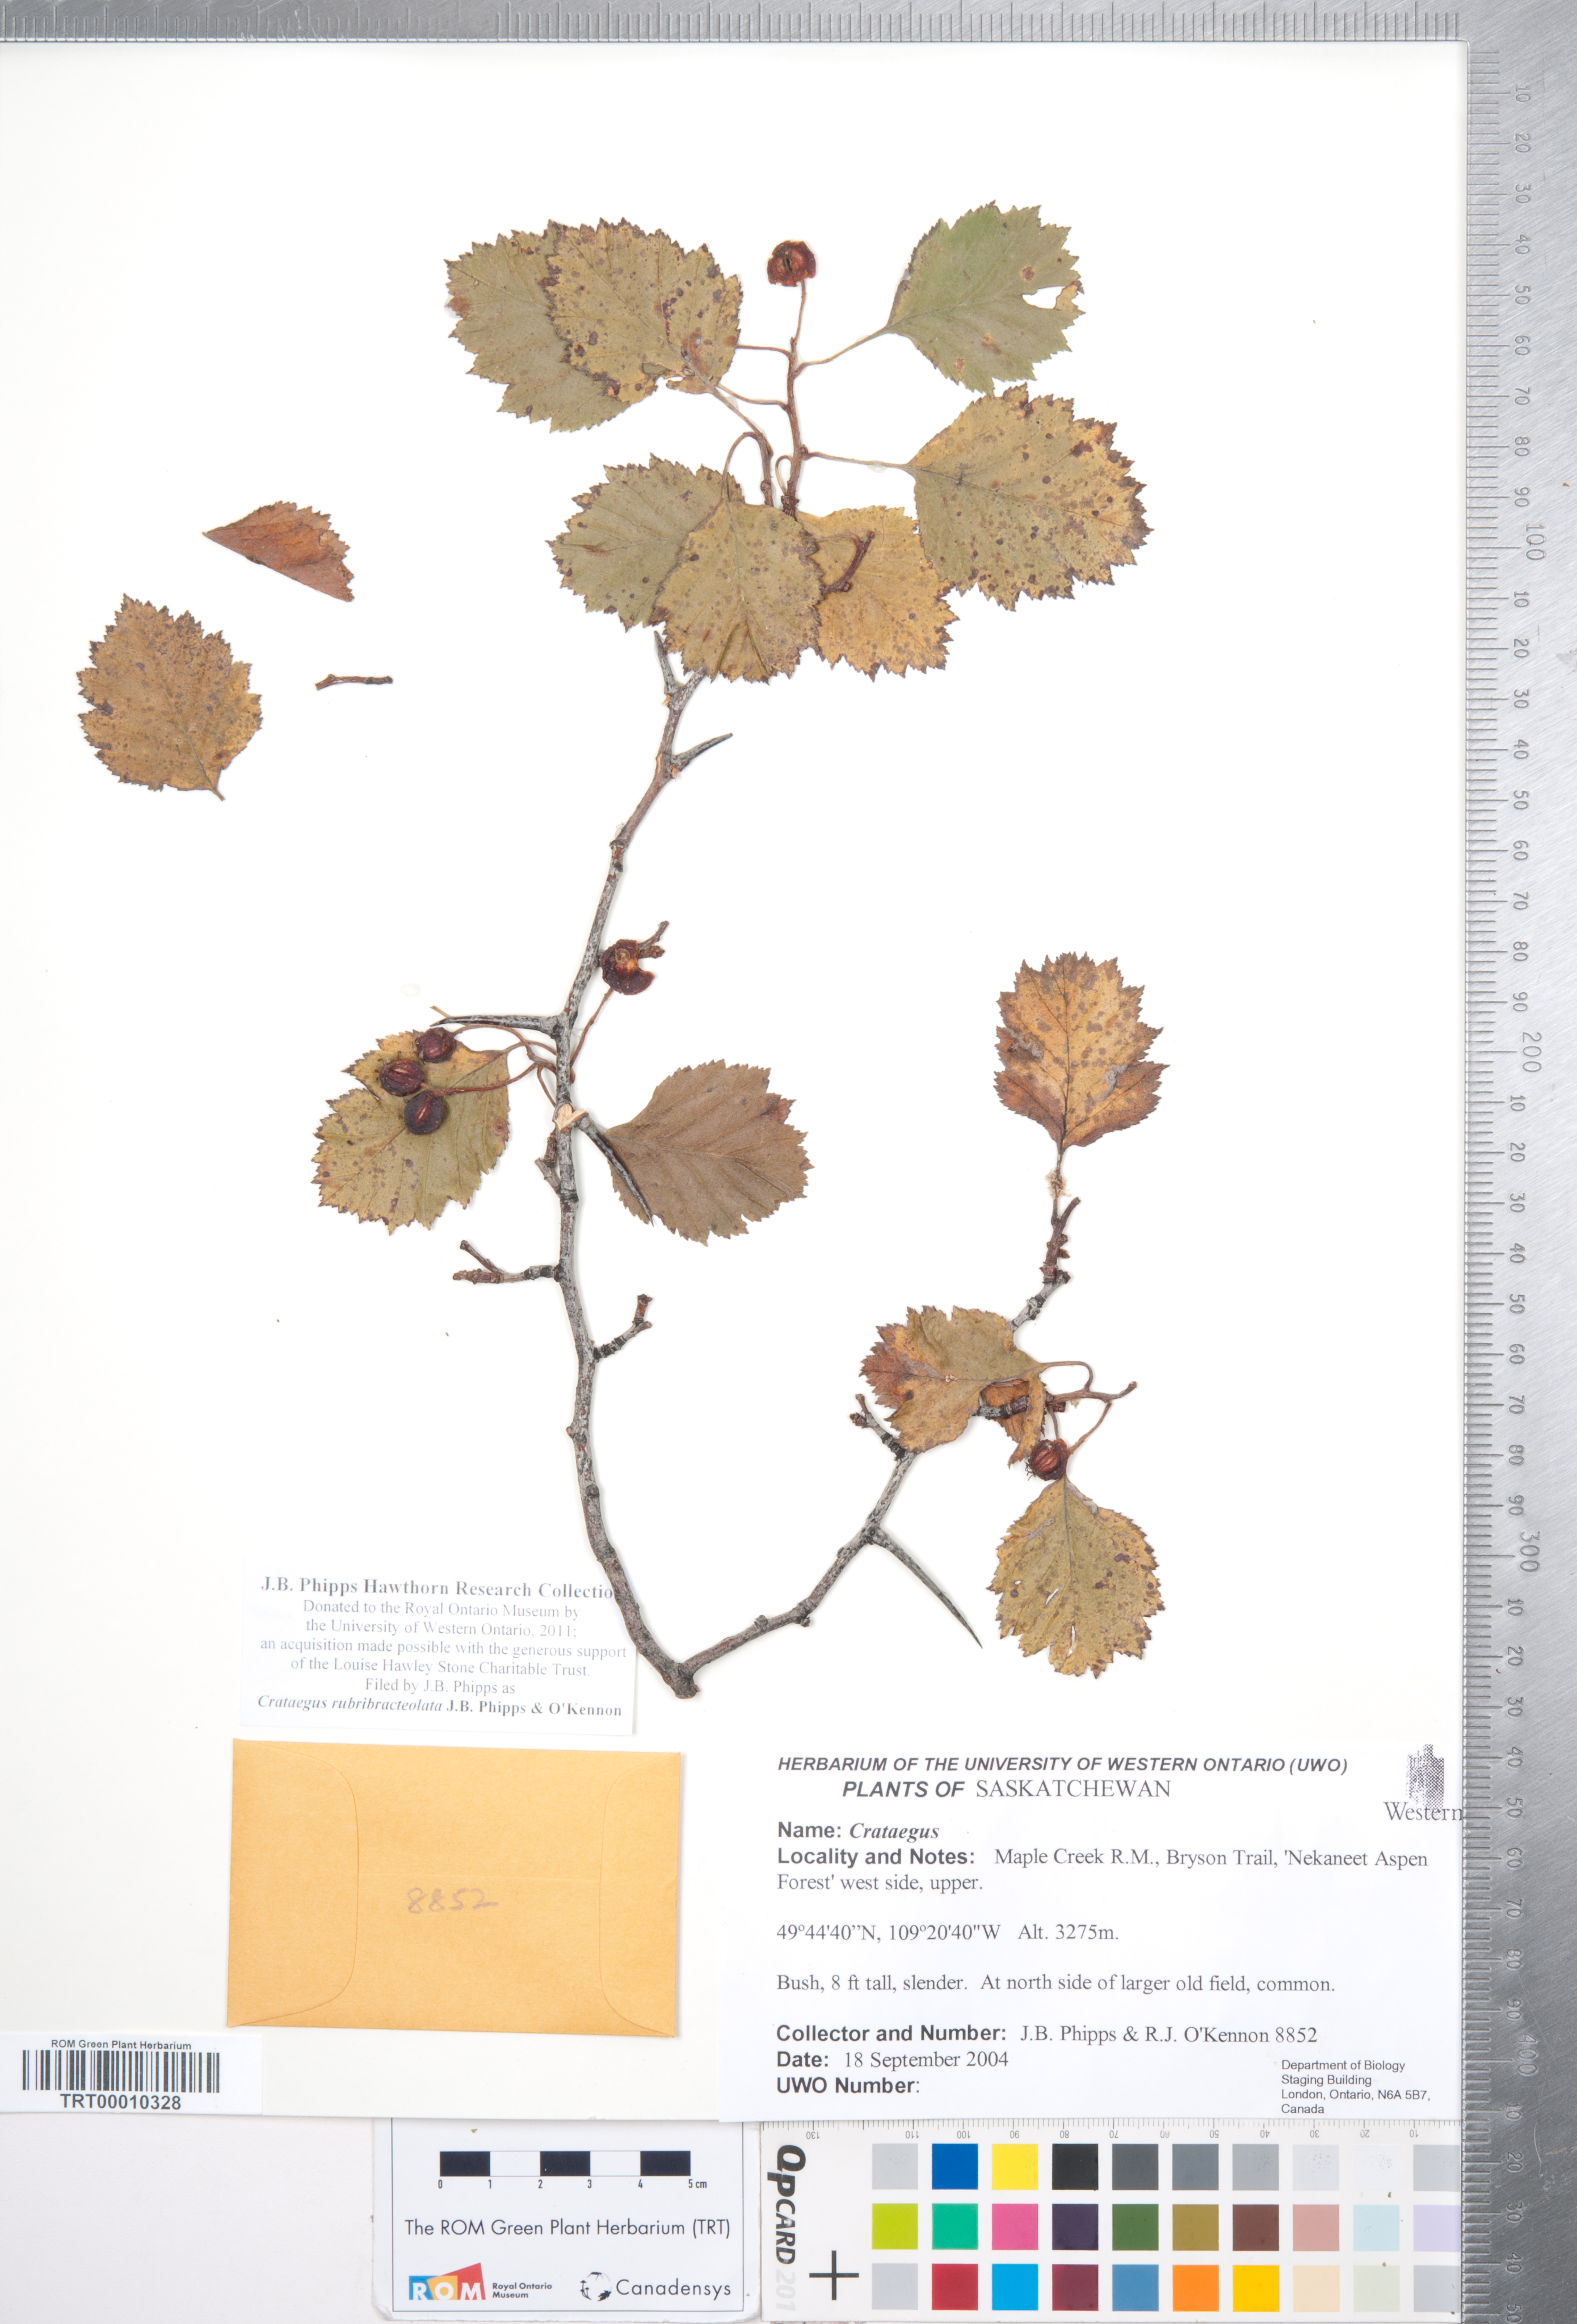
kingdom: Plantae
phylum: Tracheophyta
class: Magnoliopsida
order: Rosales
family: Rosaceae
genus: Crataegus
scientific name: Crataegus rubribracteolata
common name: Red bracteole hawthorn
